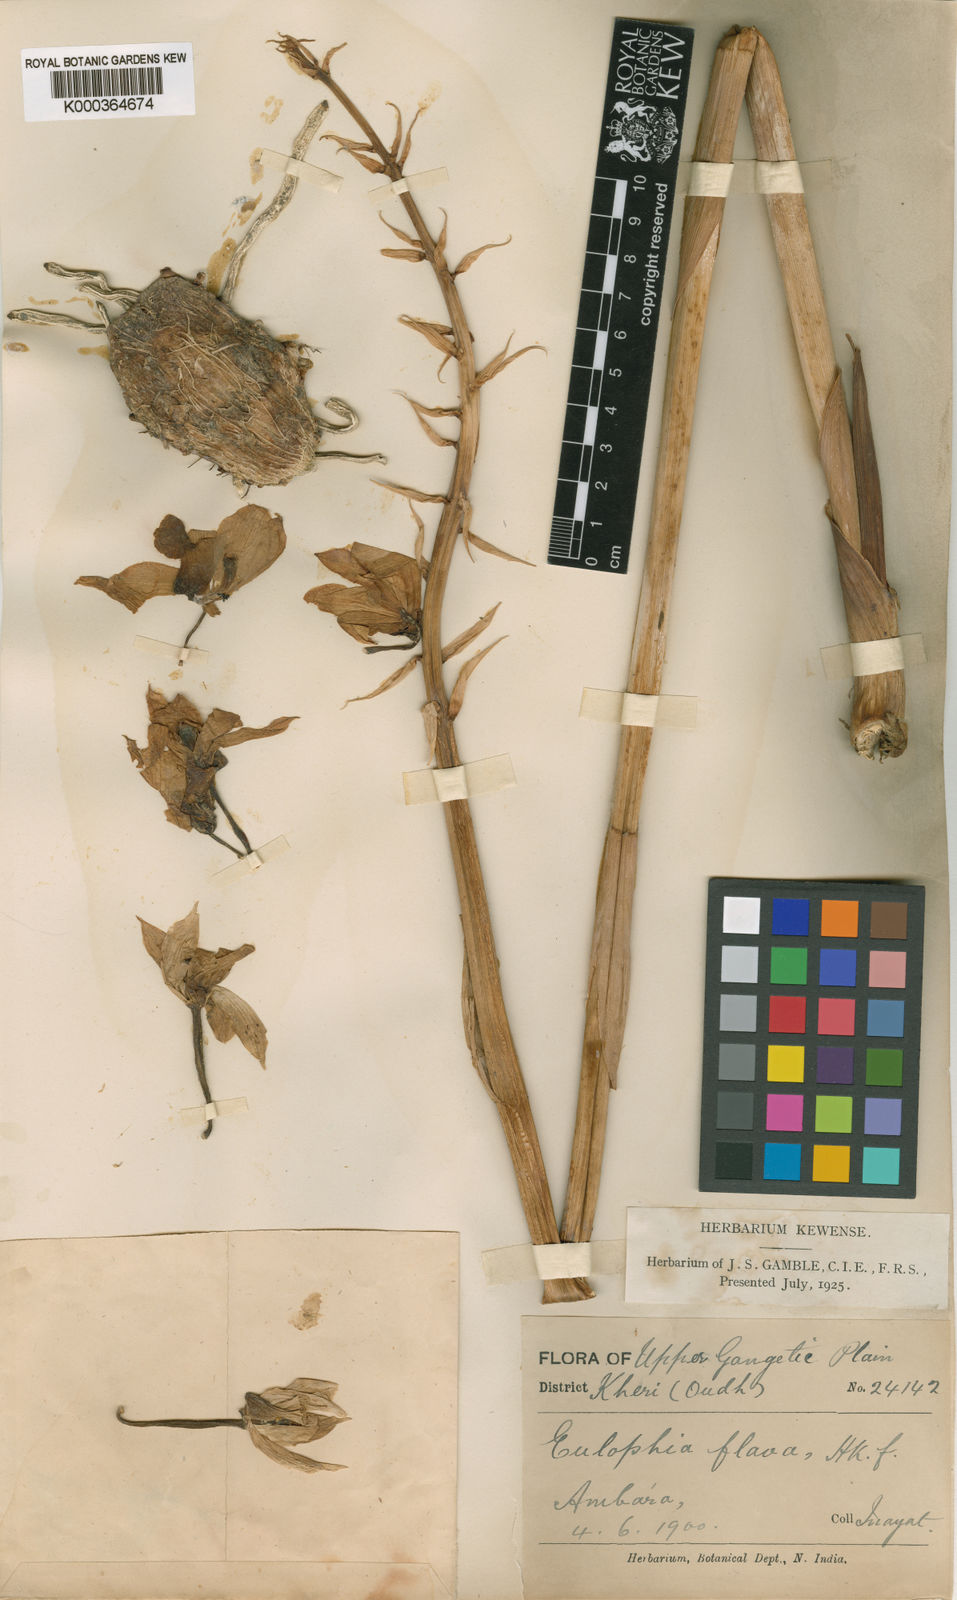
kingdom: Plantae
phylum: Tracheophyta
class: Liliopsida
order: Asparagales
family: Orchidaceae
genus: Eulophia
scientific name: Eulophia flava
